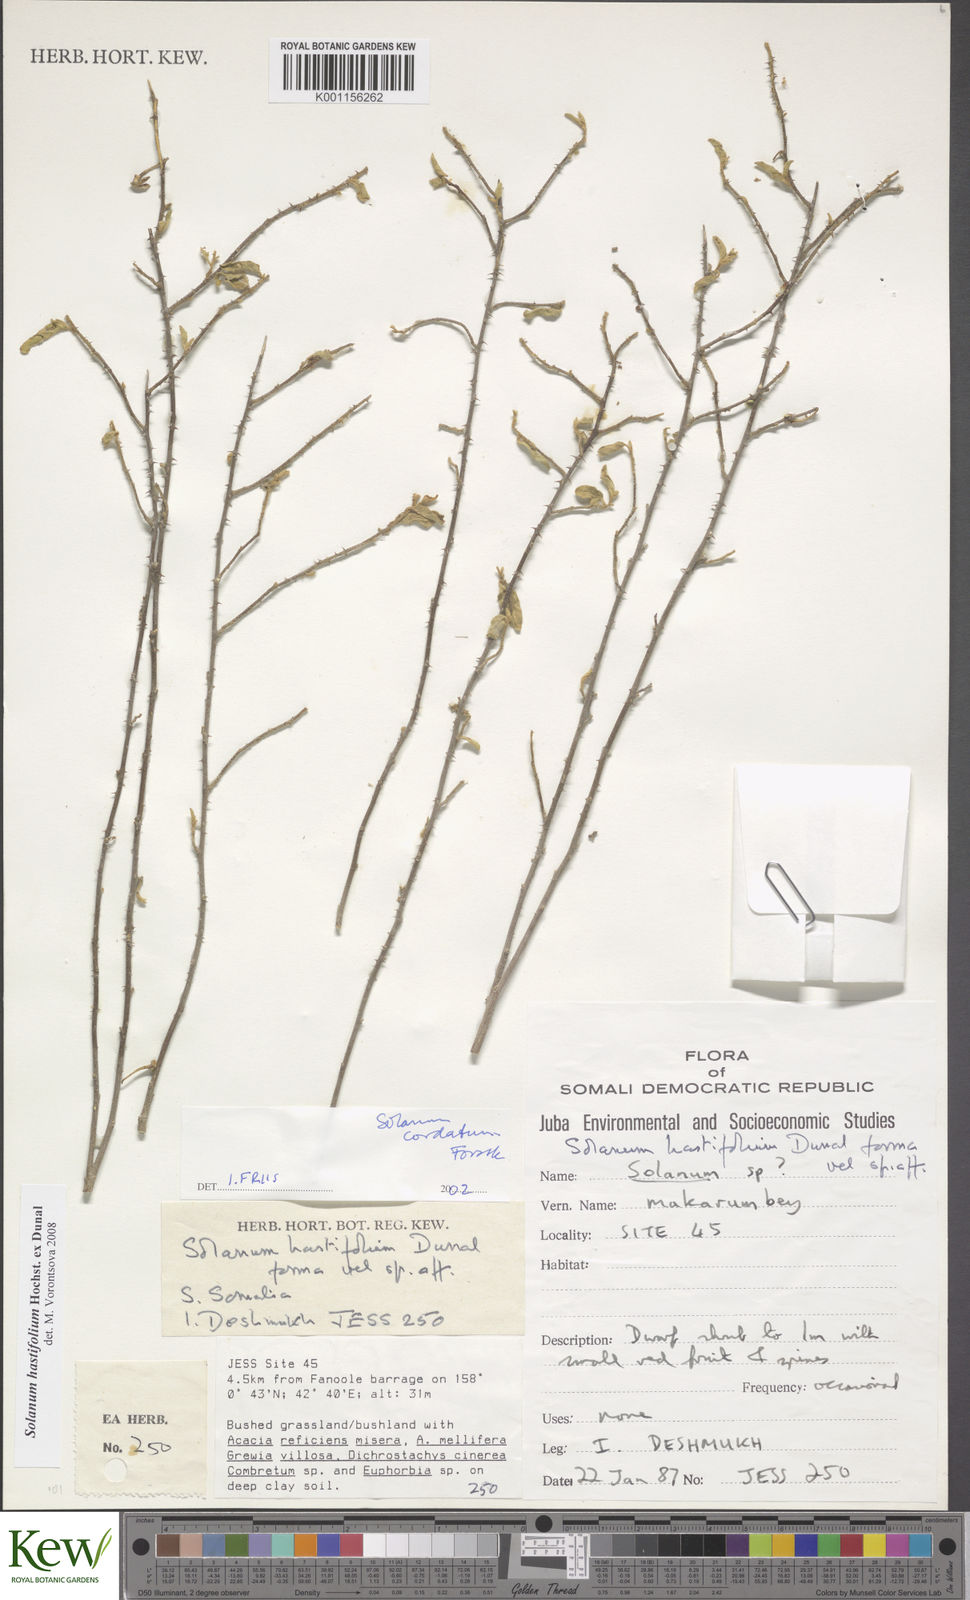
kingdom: Plantae
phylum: Tracheophyta
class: Magnoliopsida
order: Solanales
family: Solanaceae
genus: Solanum
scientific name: Solanum hastifolium
